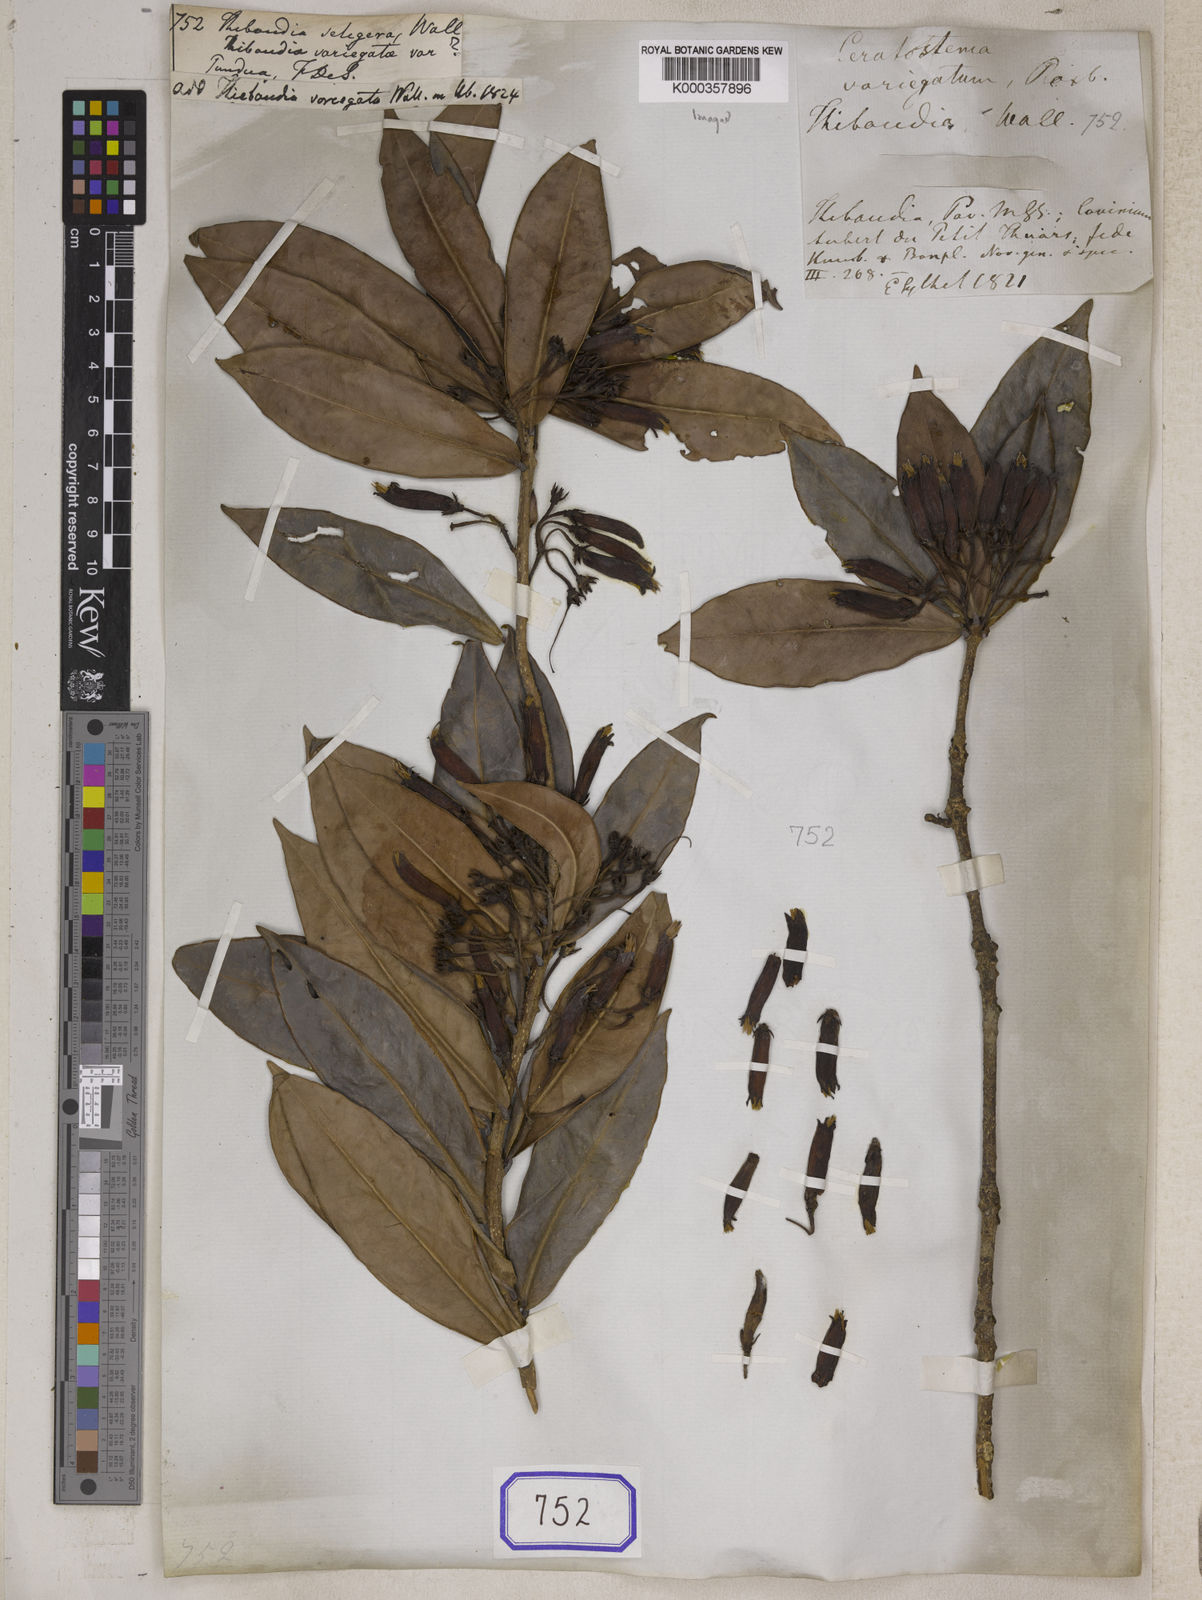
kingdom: Plantae
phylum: Tracheophyta
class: Magnoliopsida
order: Ericales
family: Ericaceae
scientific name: Ericaceae
